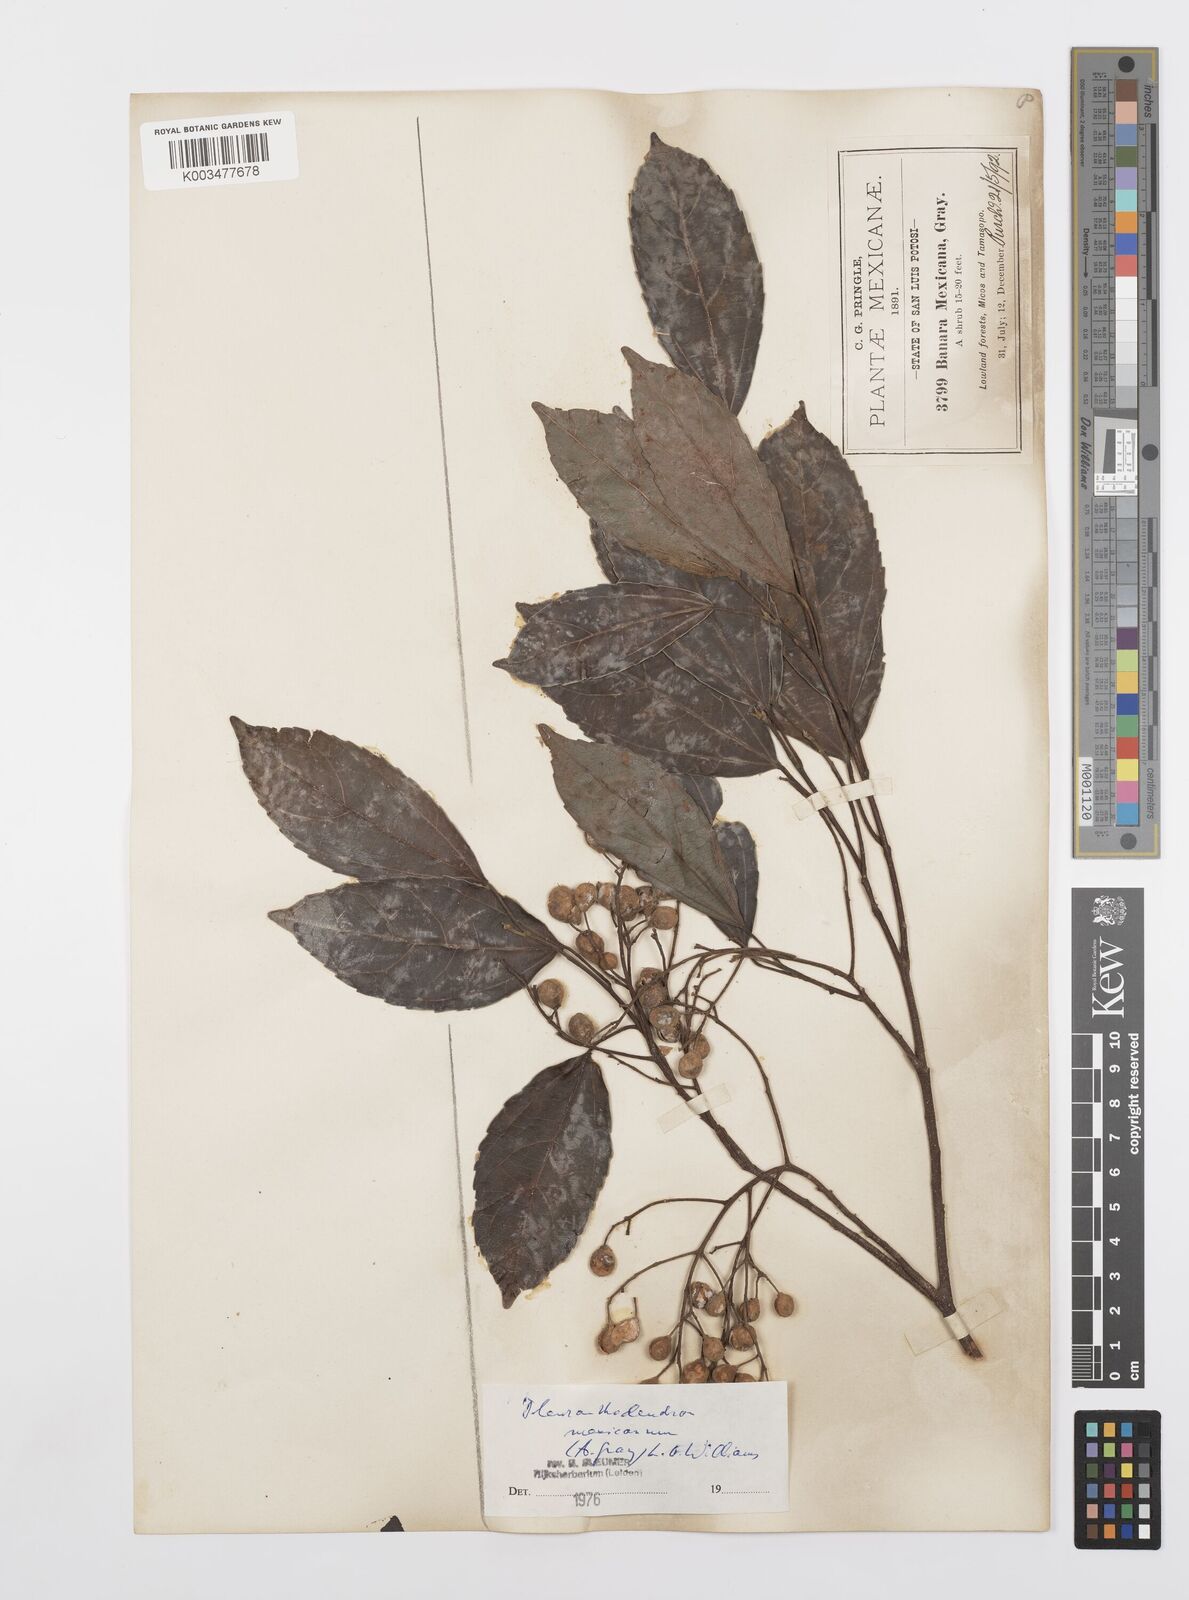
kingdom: Plantae
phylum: Tracheophyta
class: Magnoliopsida
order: Malpighiales
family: Salicaceae
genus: Pleuranthodendron
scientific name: Pleuranthodendron lindenii
